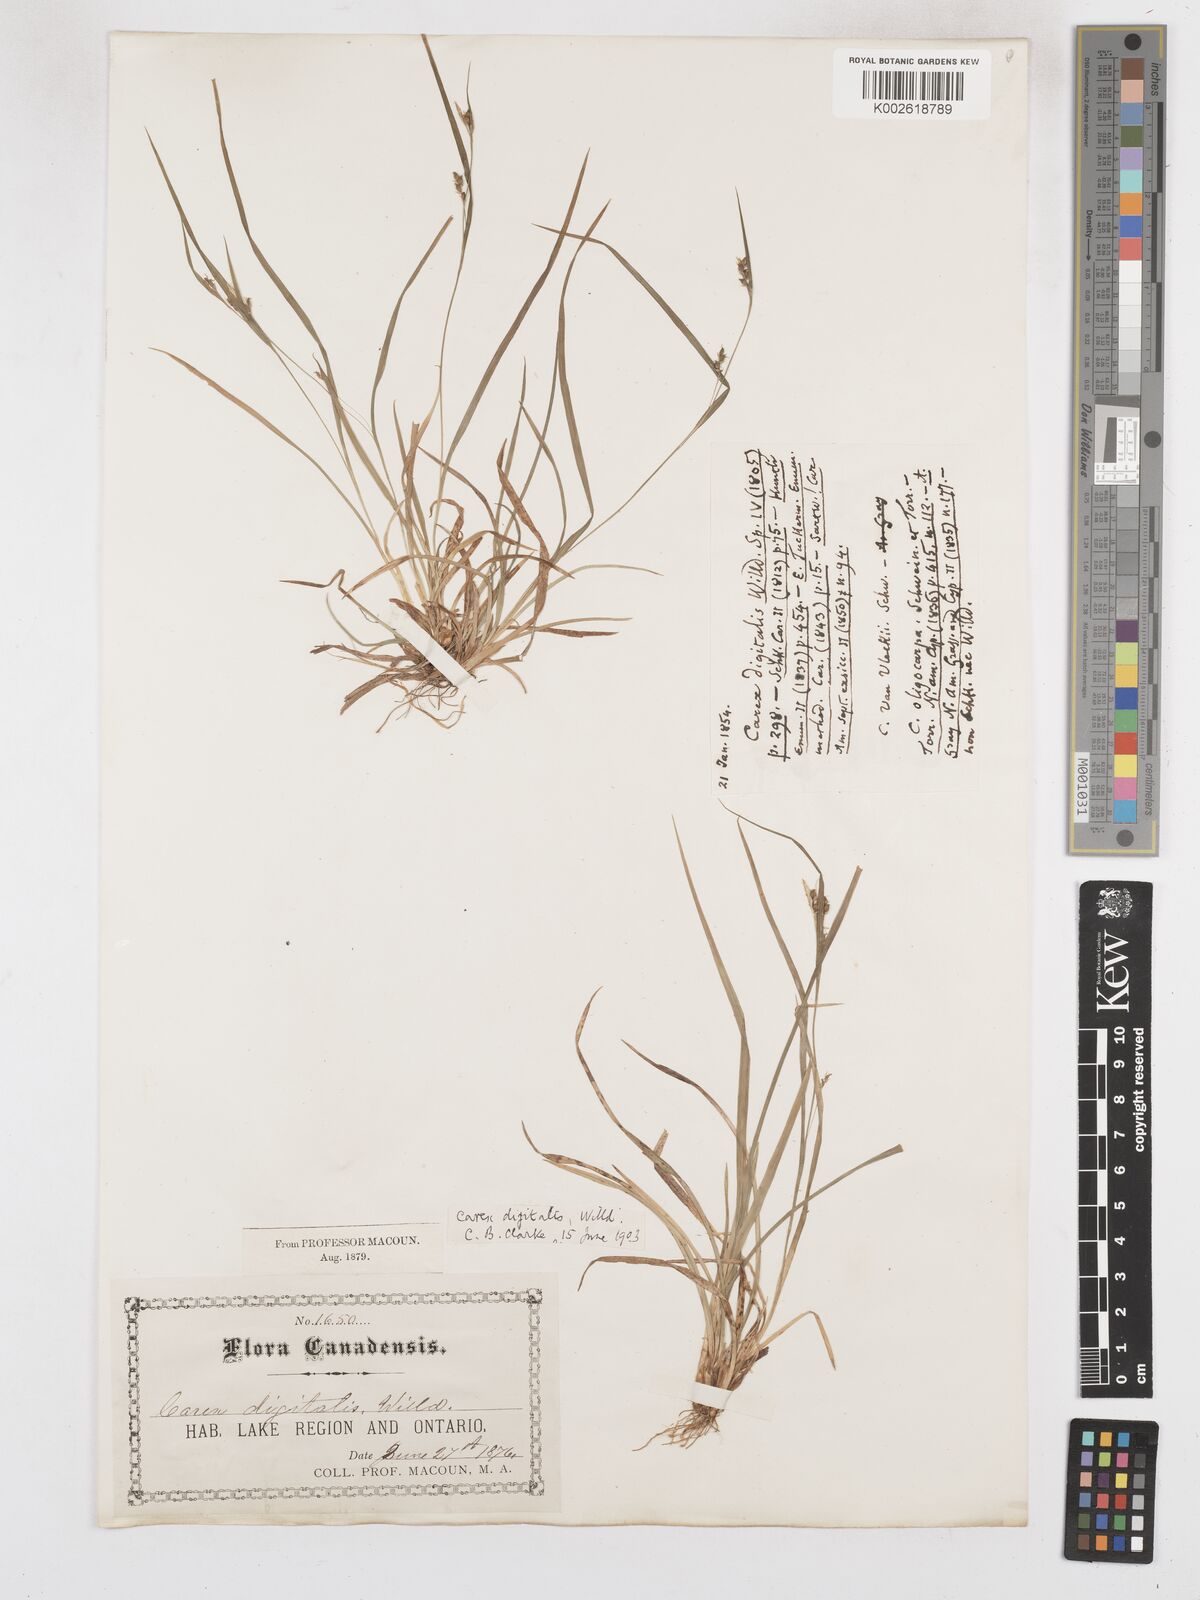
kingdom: Plantae
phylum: Tracheophyta
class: Liliopsida
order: Poales
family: Cyperaceae
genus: Carex
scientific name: Carex digitalis
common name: Slender wood sedge
